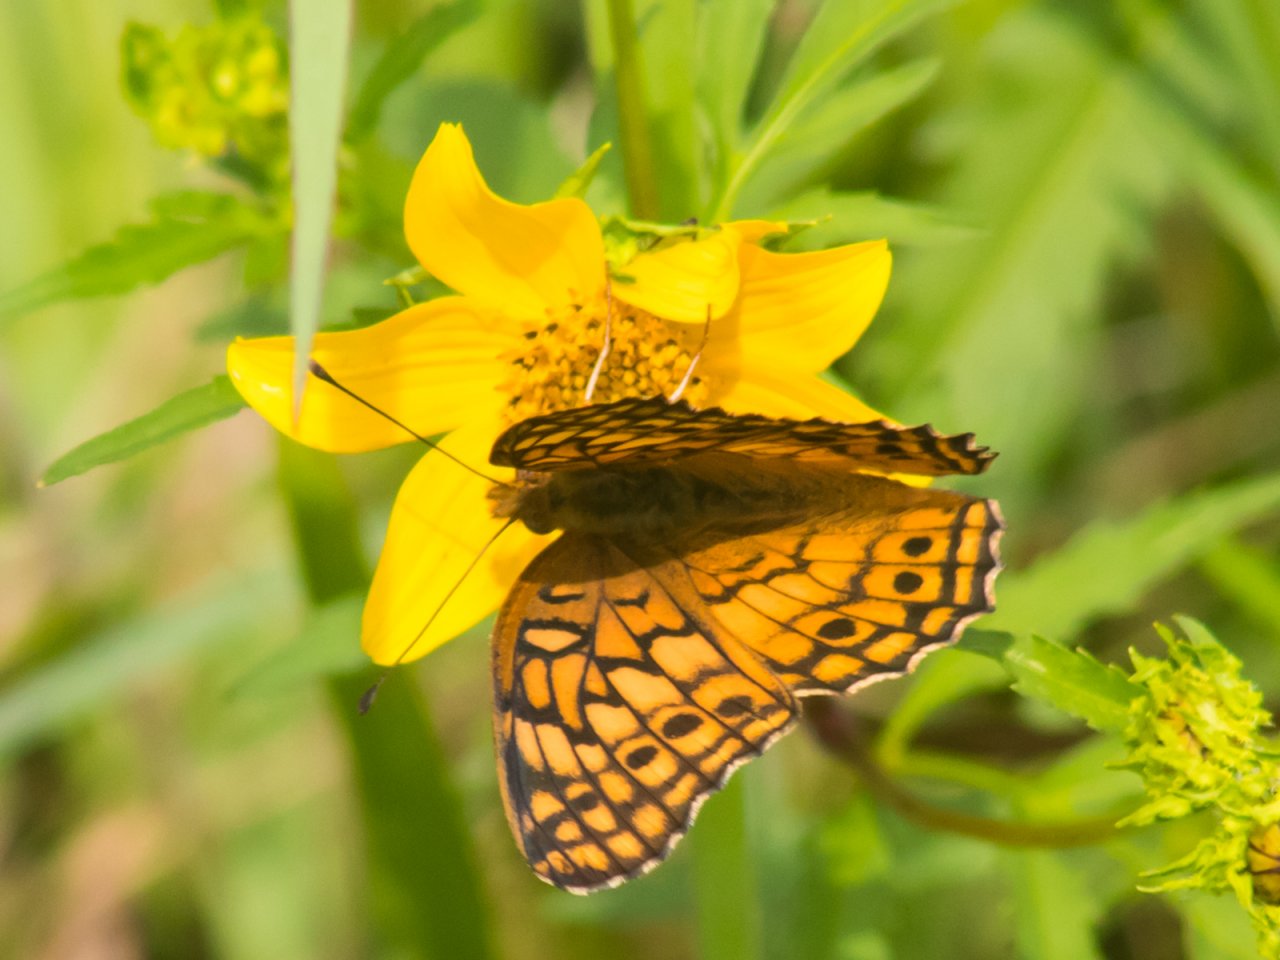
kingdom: Animalia
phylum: Arthropoda
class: Insecta
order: Lepidoptera
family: Nymphalidae
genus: Euptoieta
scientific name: Euptoieta claudia
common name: Variegated Fritillary
